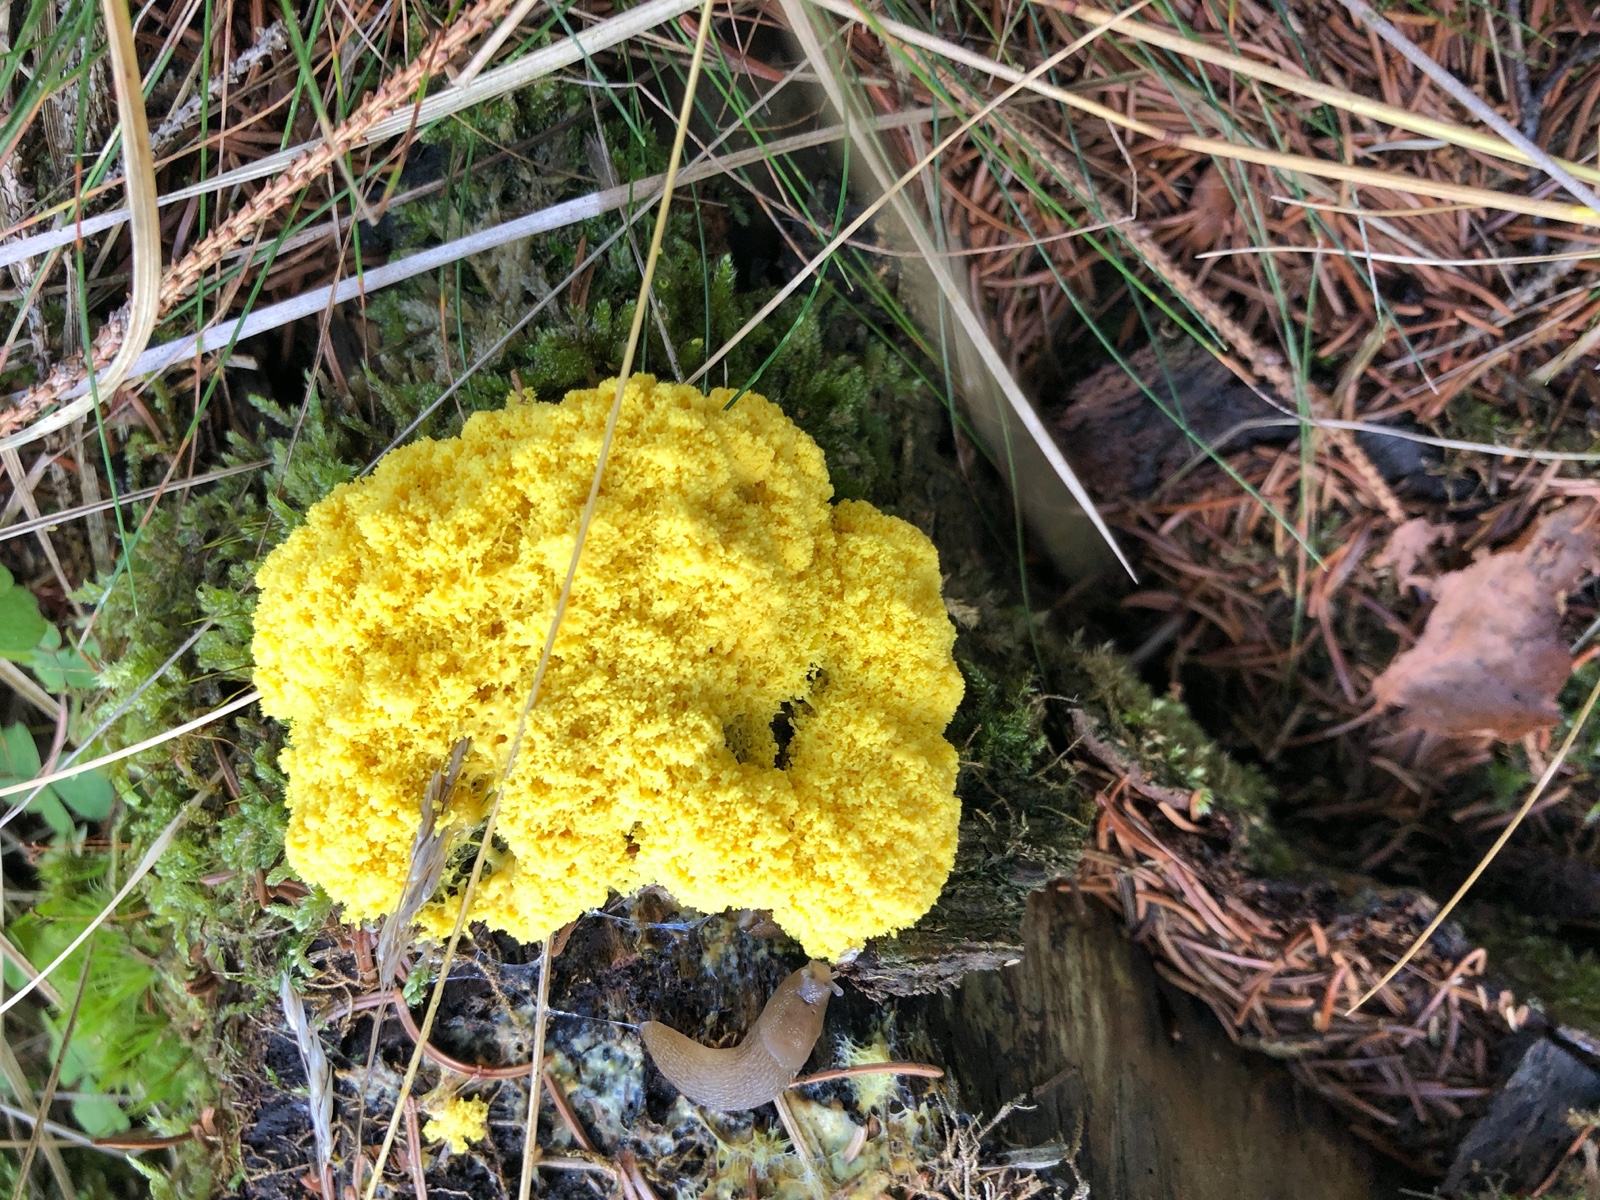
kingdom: Protozoa
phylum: Mycetozoa
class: Myxomycetes
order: Physarales
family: Physaraceae
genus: Fuligo
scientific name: Fuligo septica
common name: gul troldsmør
